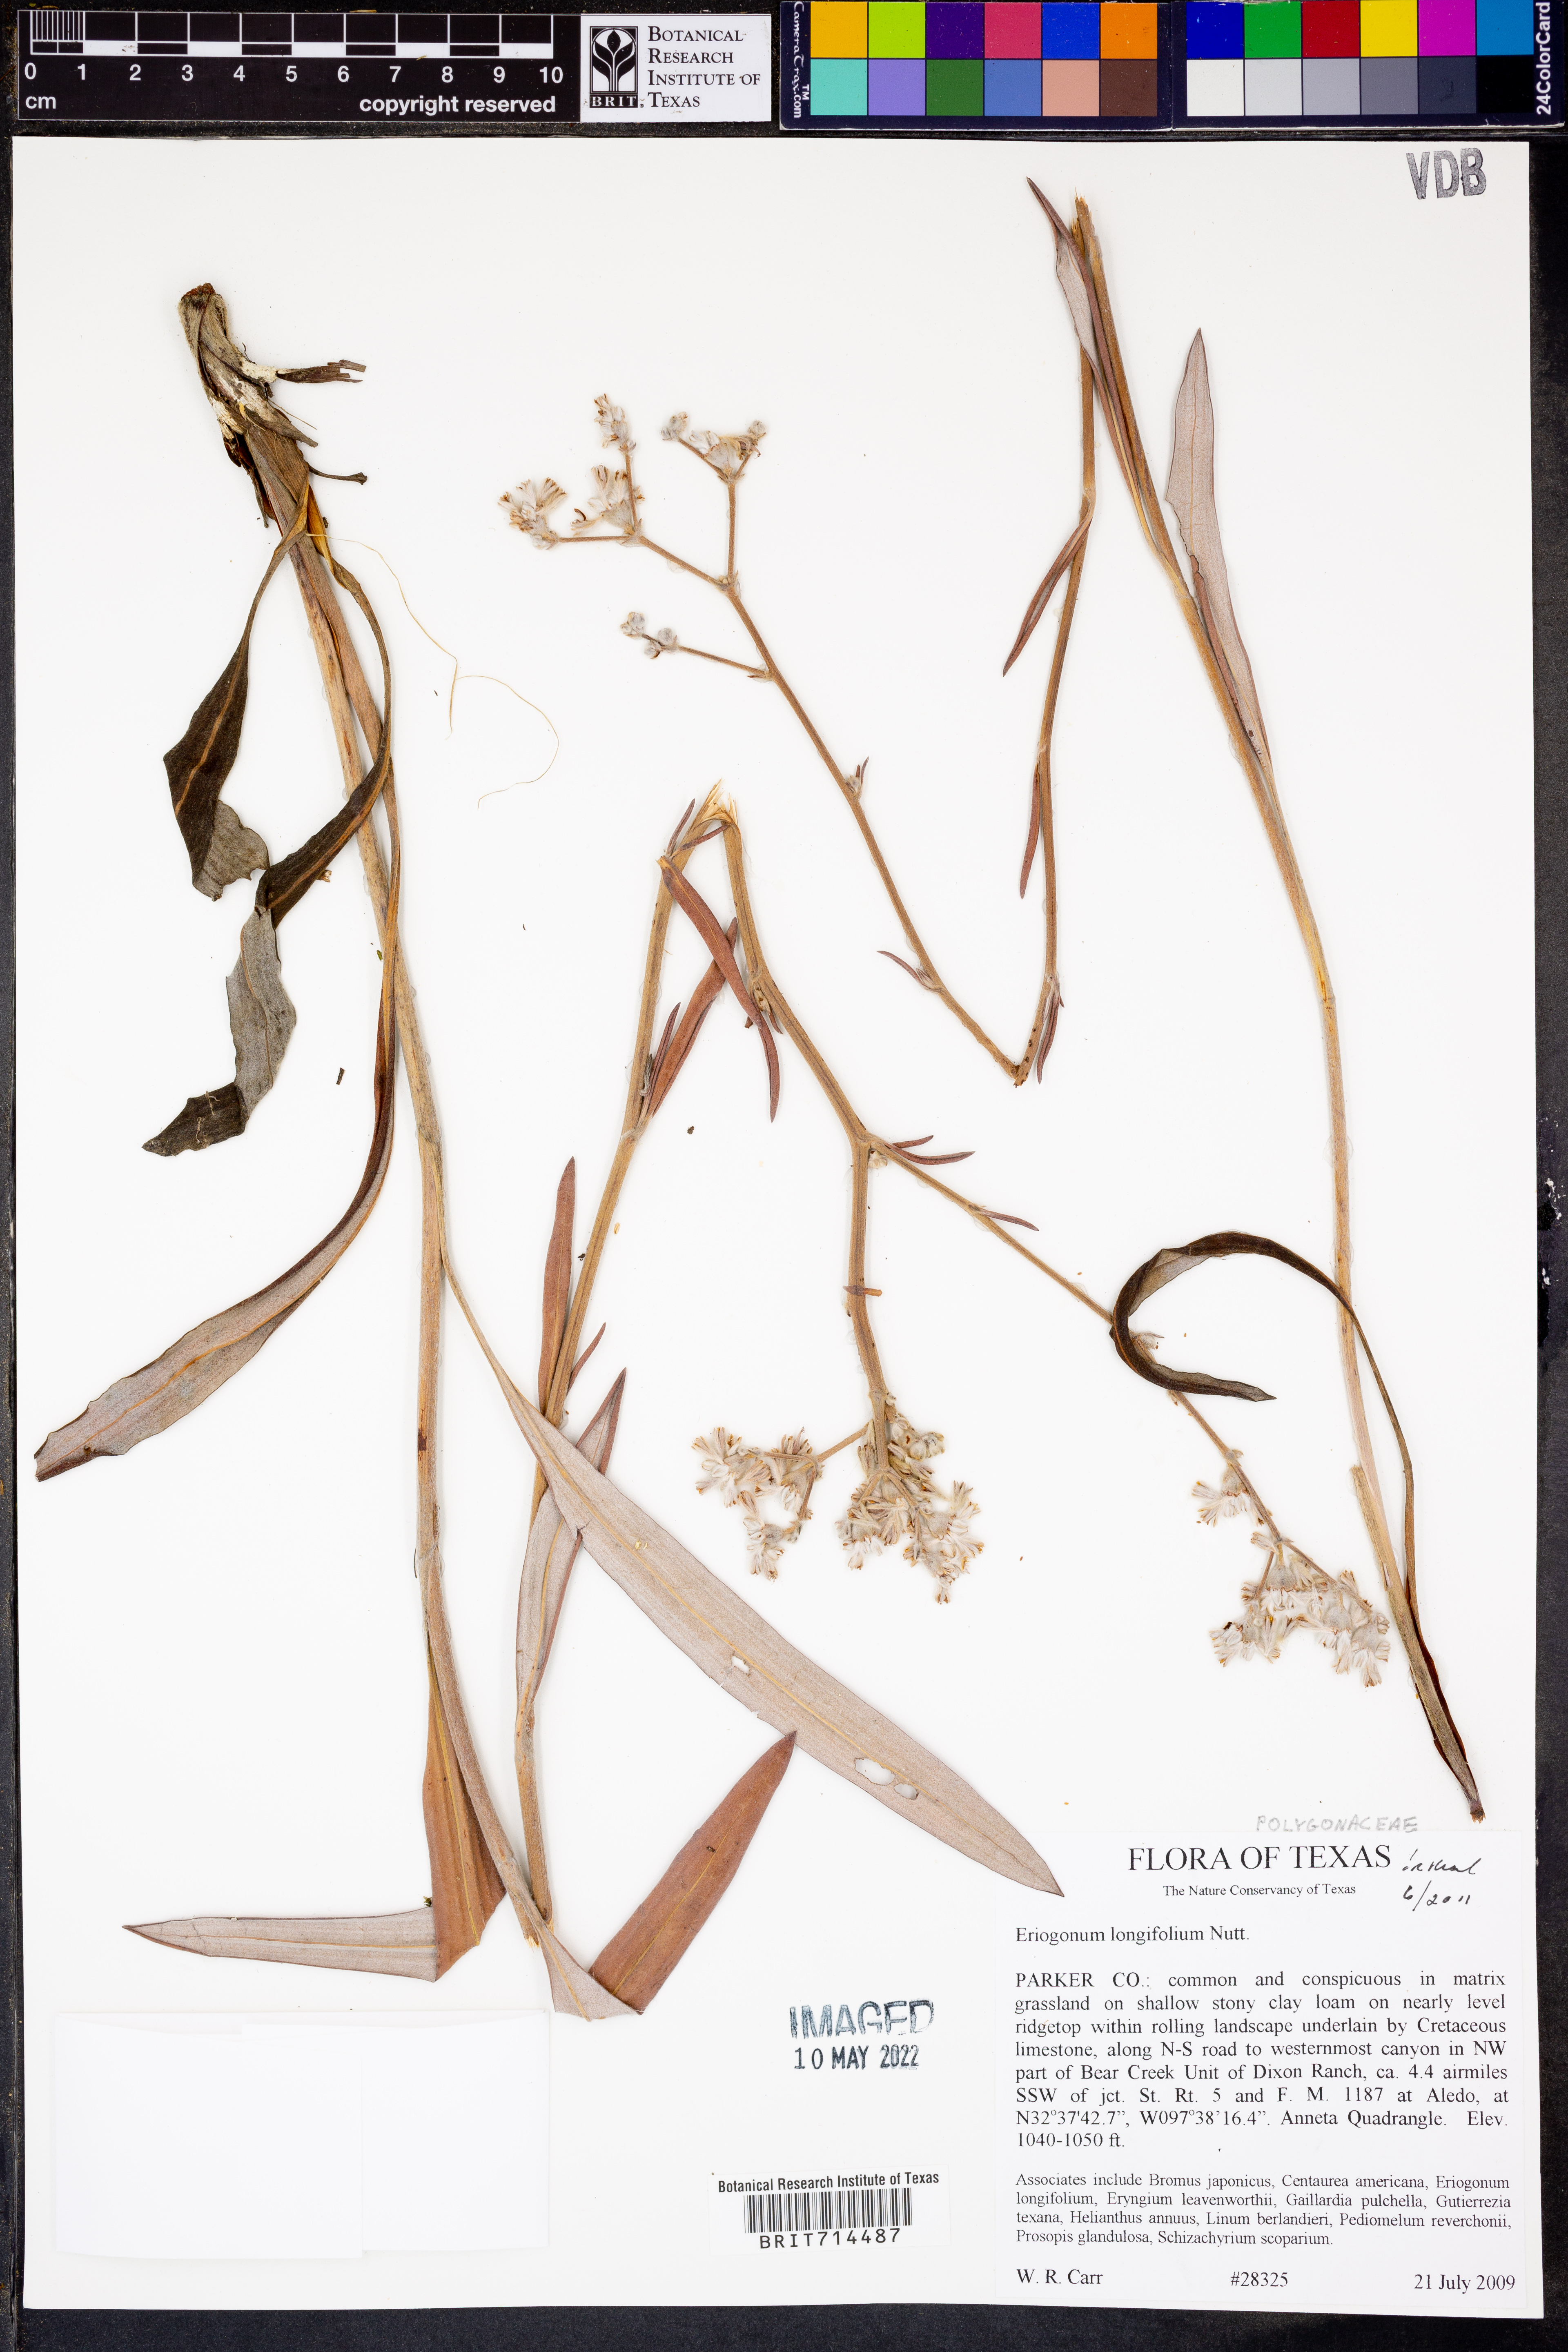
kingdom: Plantae
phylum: Tracheophyta
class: Magnoliopsida
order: Caryophyllales
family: Polygonaceae
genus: Eriogonum
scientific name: Eriogonum longifolium
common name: Longleaf wild buckwheat
